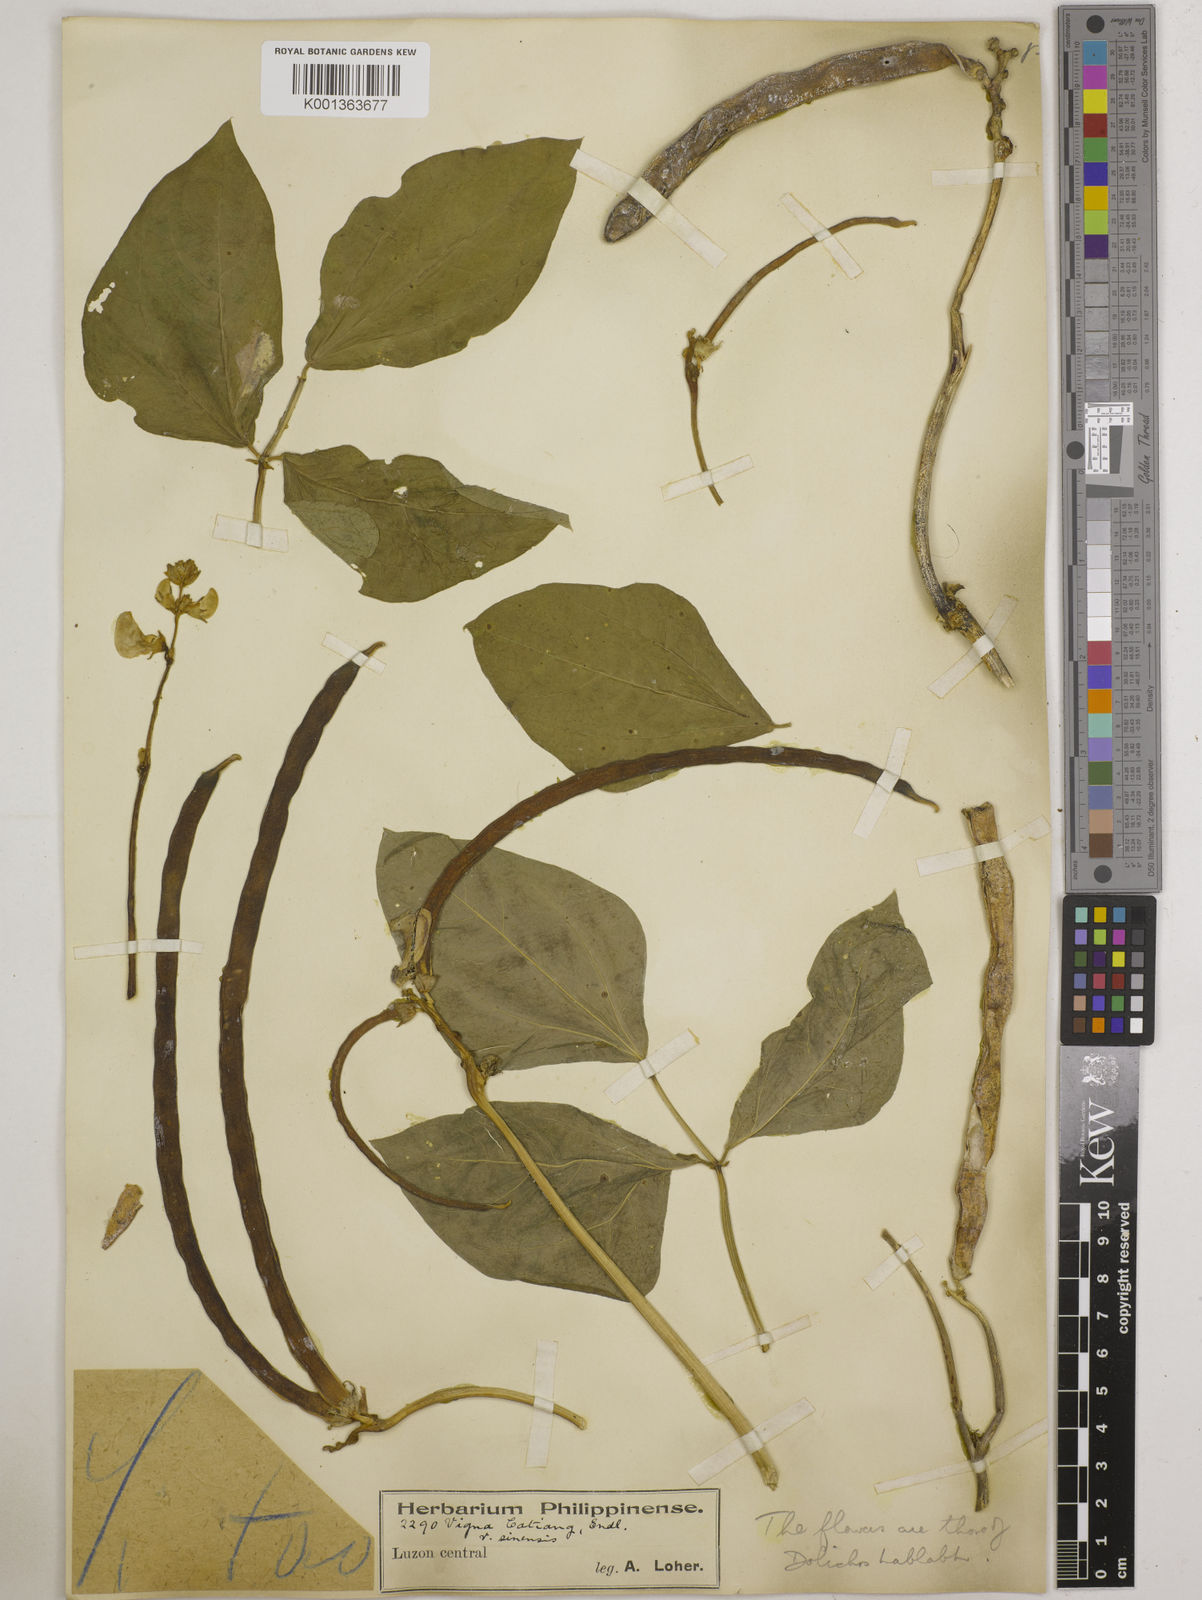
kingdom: Plantae
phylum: Tracheophyta
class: Magnoliopsida
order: Fabales
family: Fabaceae
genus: Vigna
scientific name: Vigna unguiculata
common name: Cowpea
